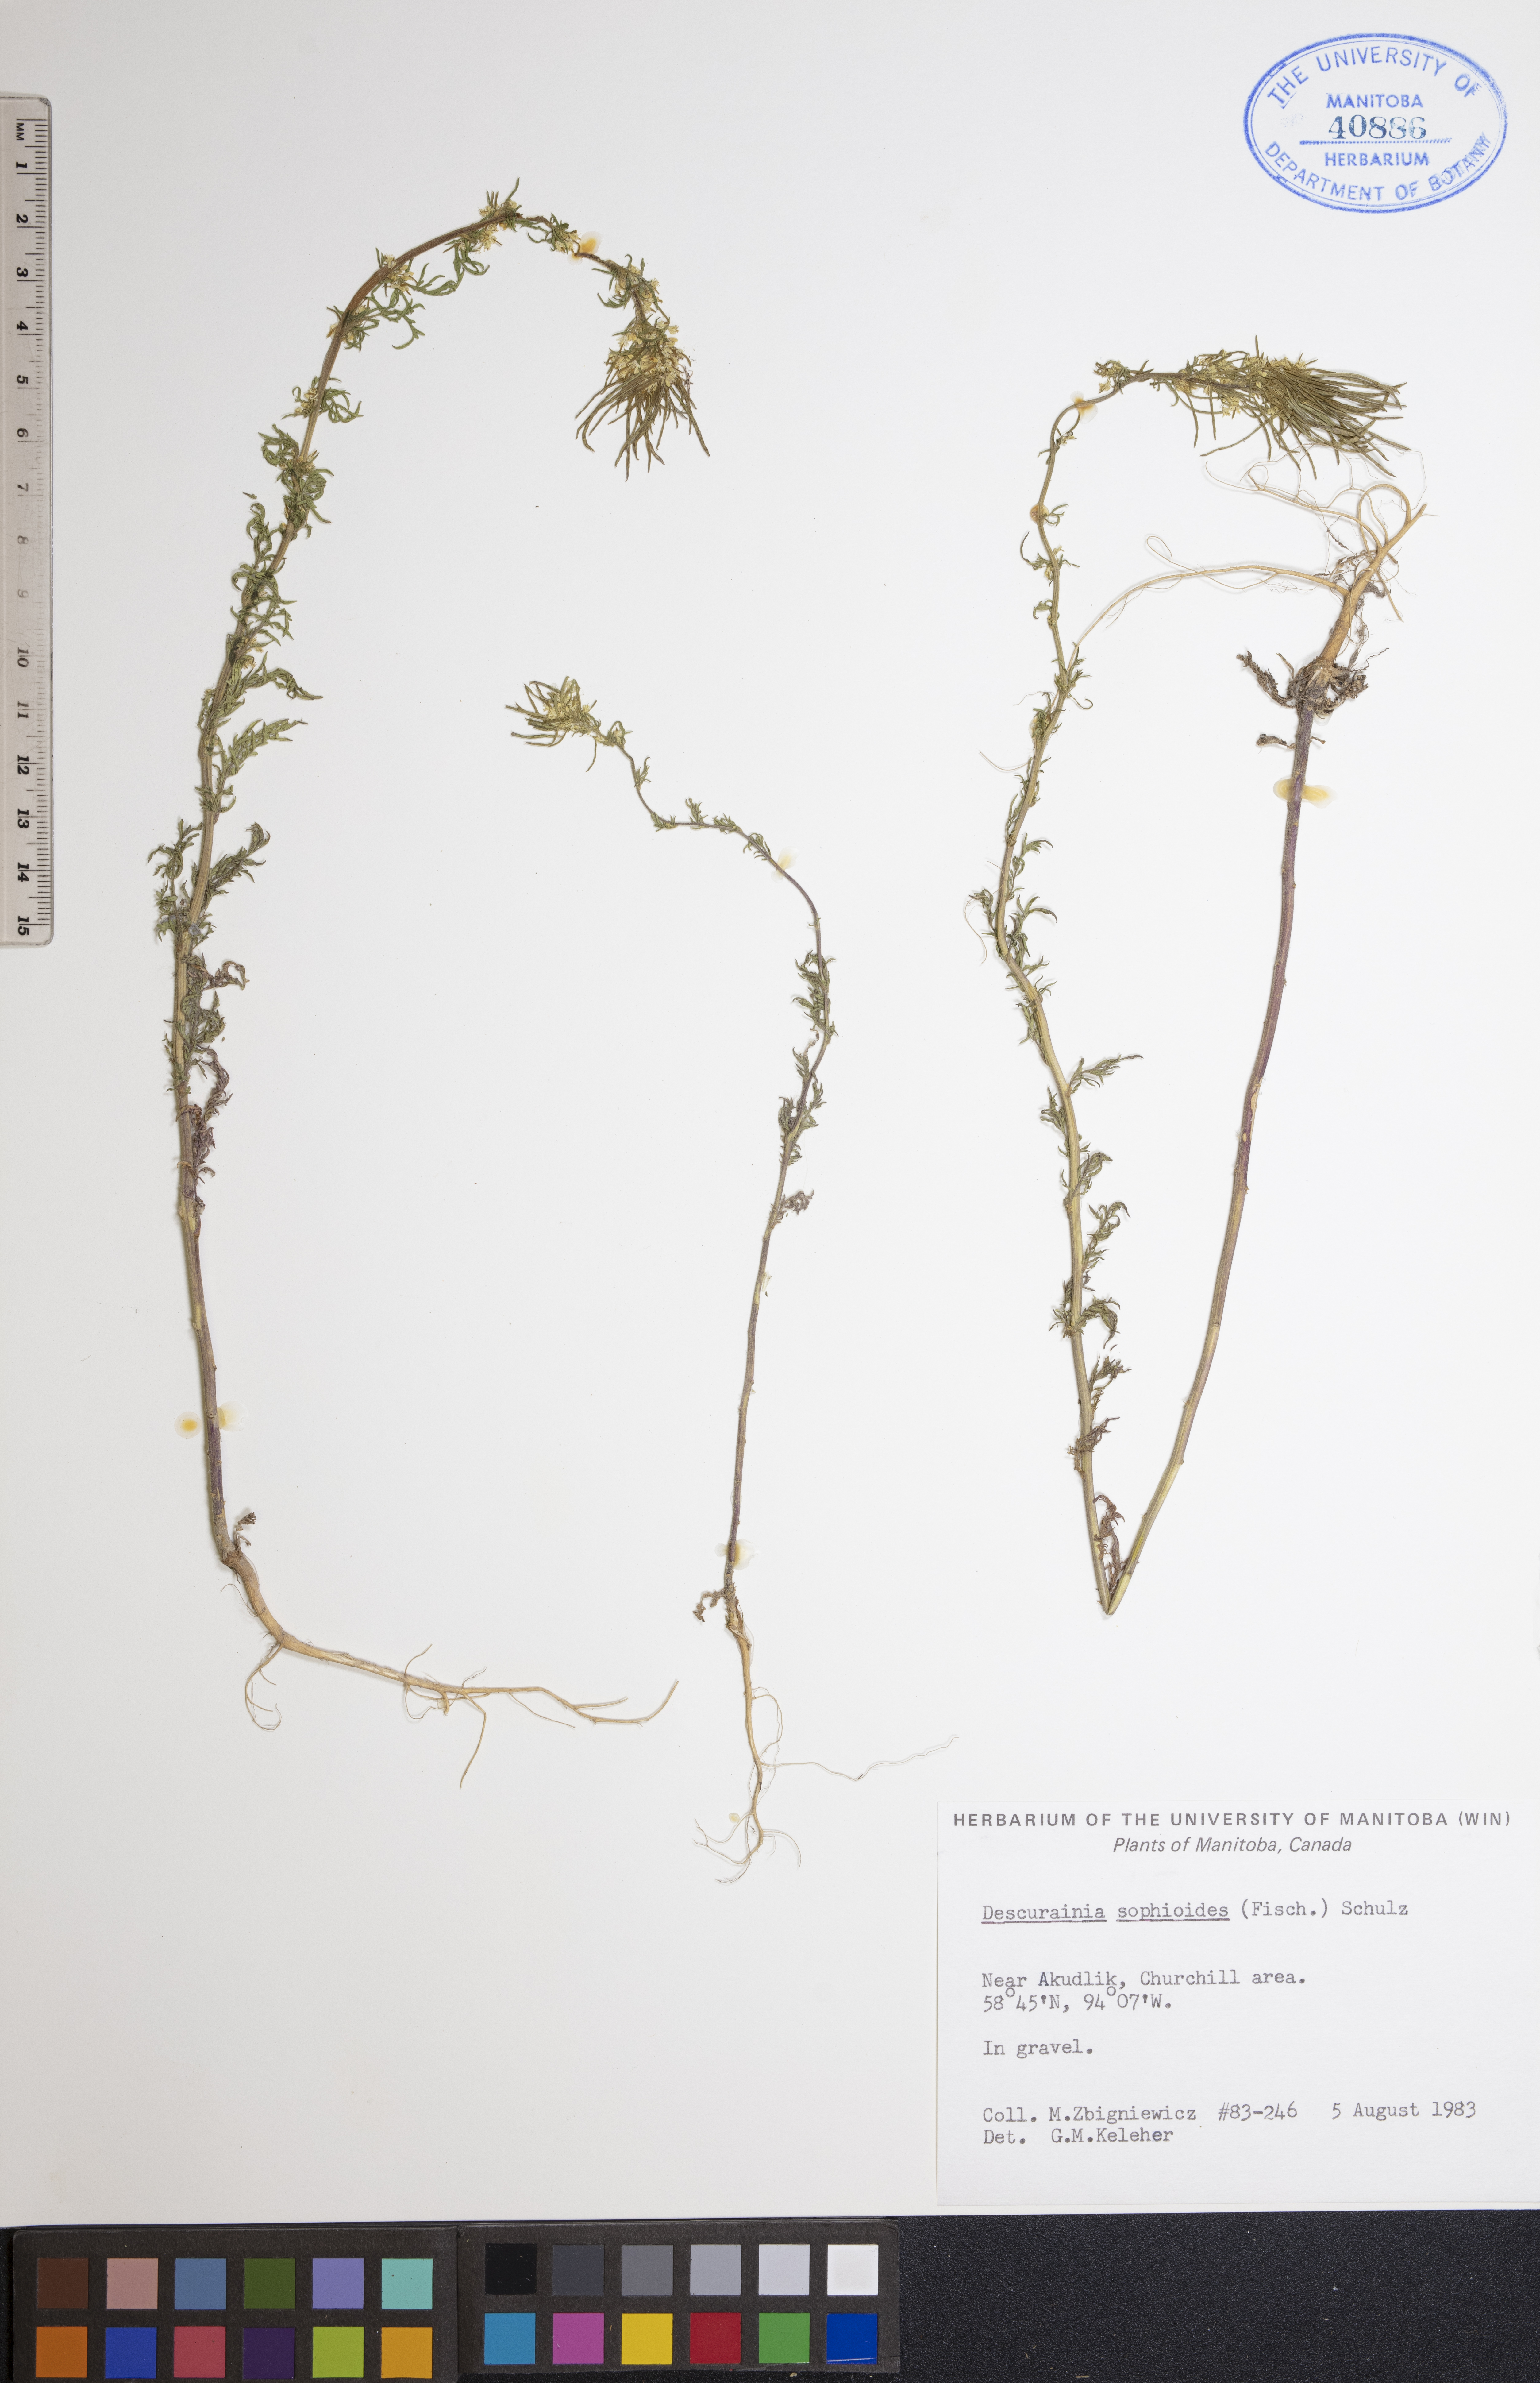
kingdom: Plantae
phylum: Tracheophyta
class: Magnoliopsida
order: Brassicales
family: Brassicaceae
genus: Descurainia
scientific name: Descurainia sophioides
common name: Northern tansy mustard
